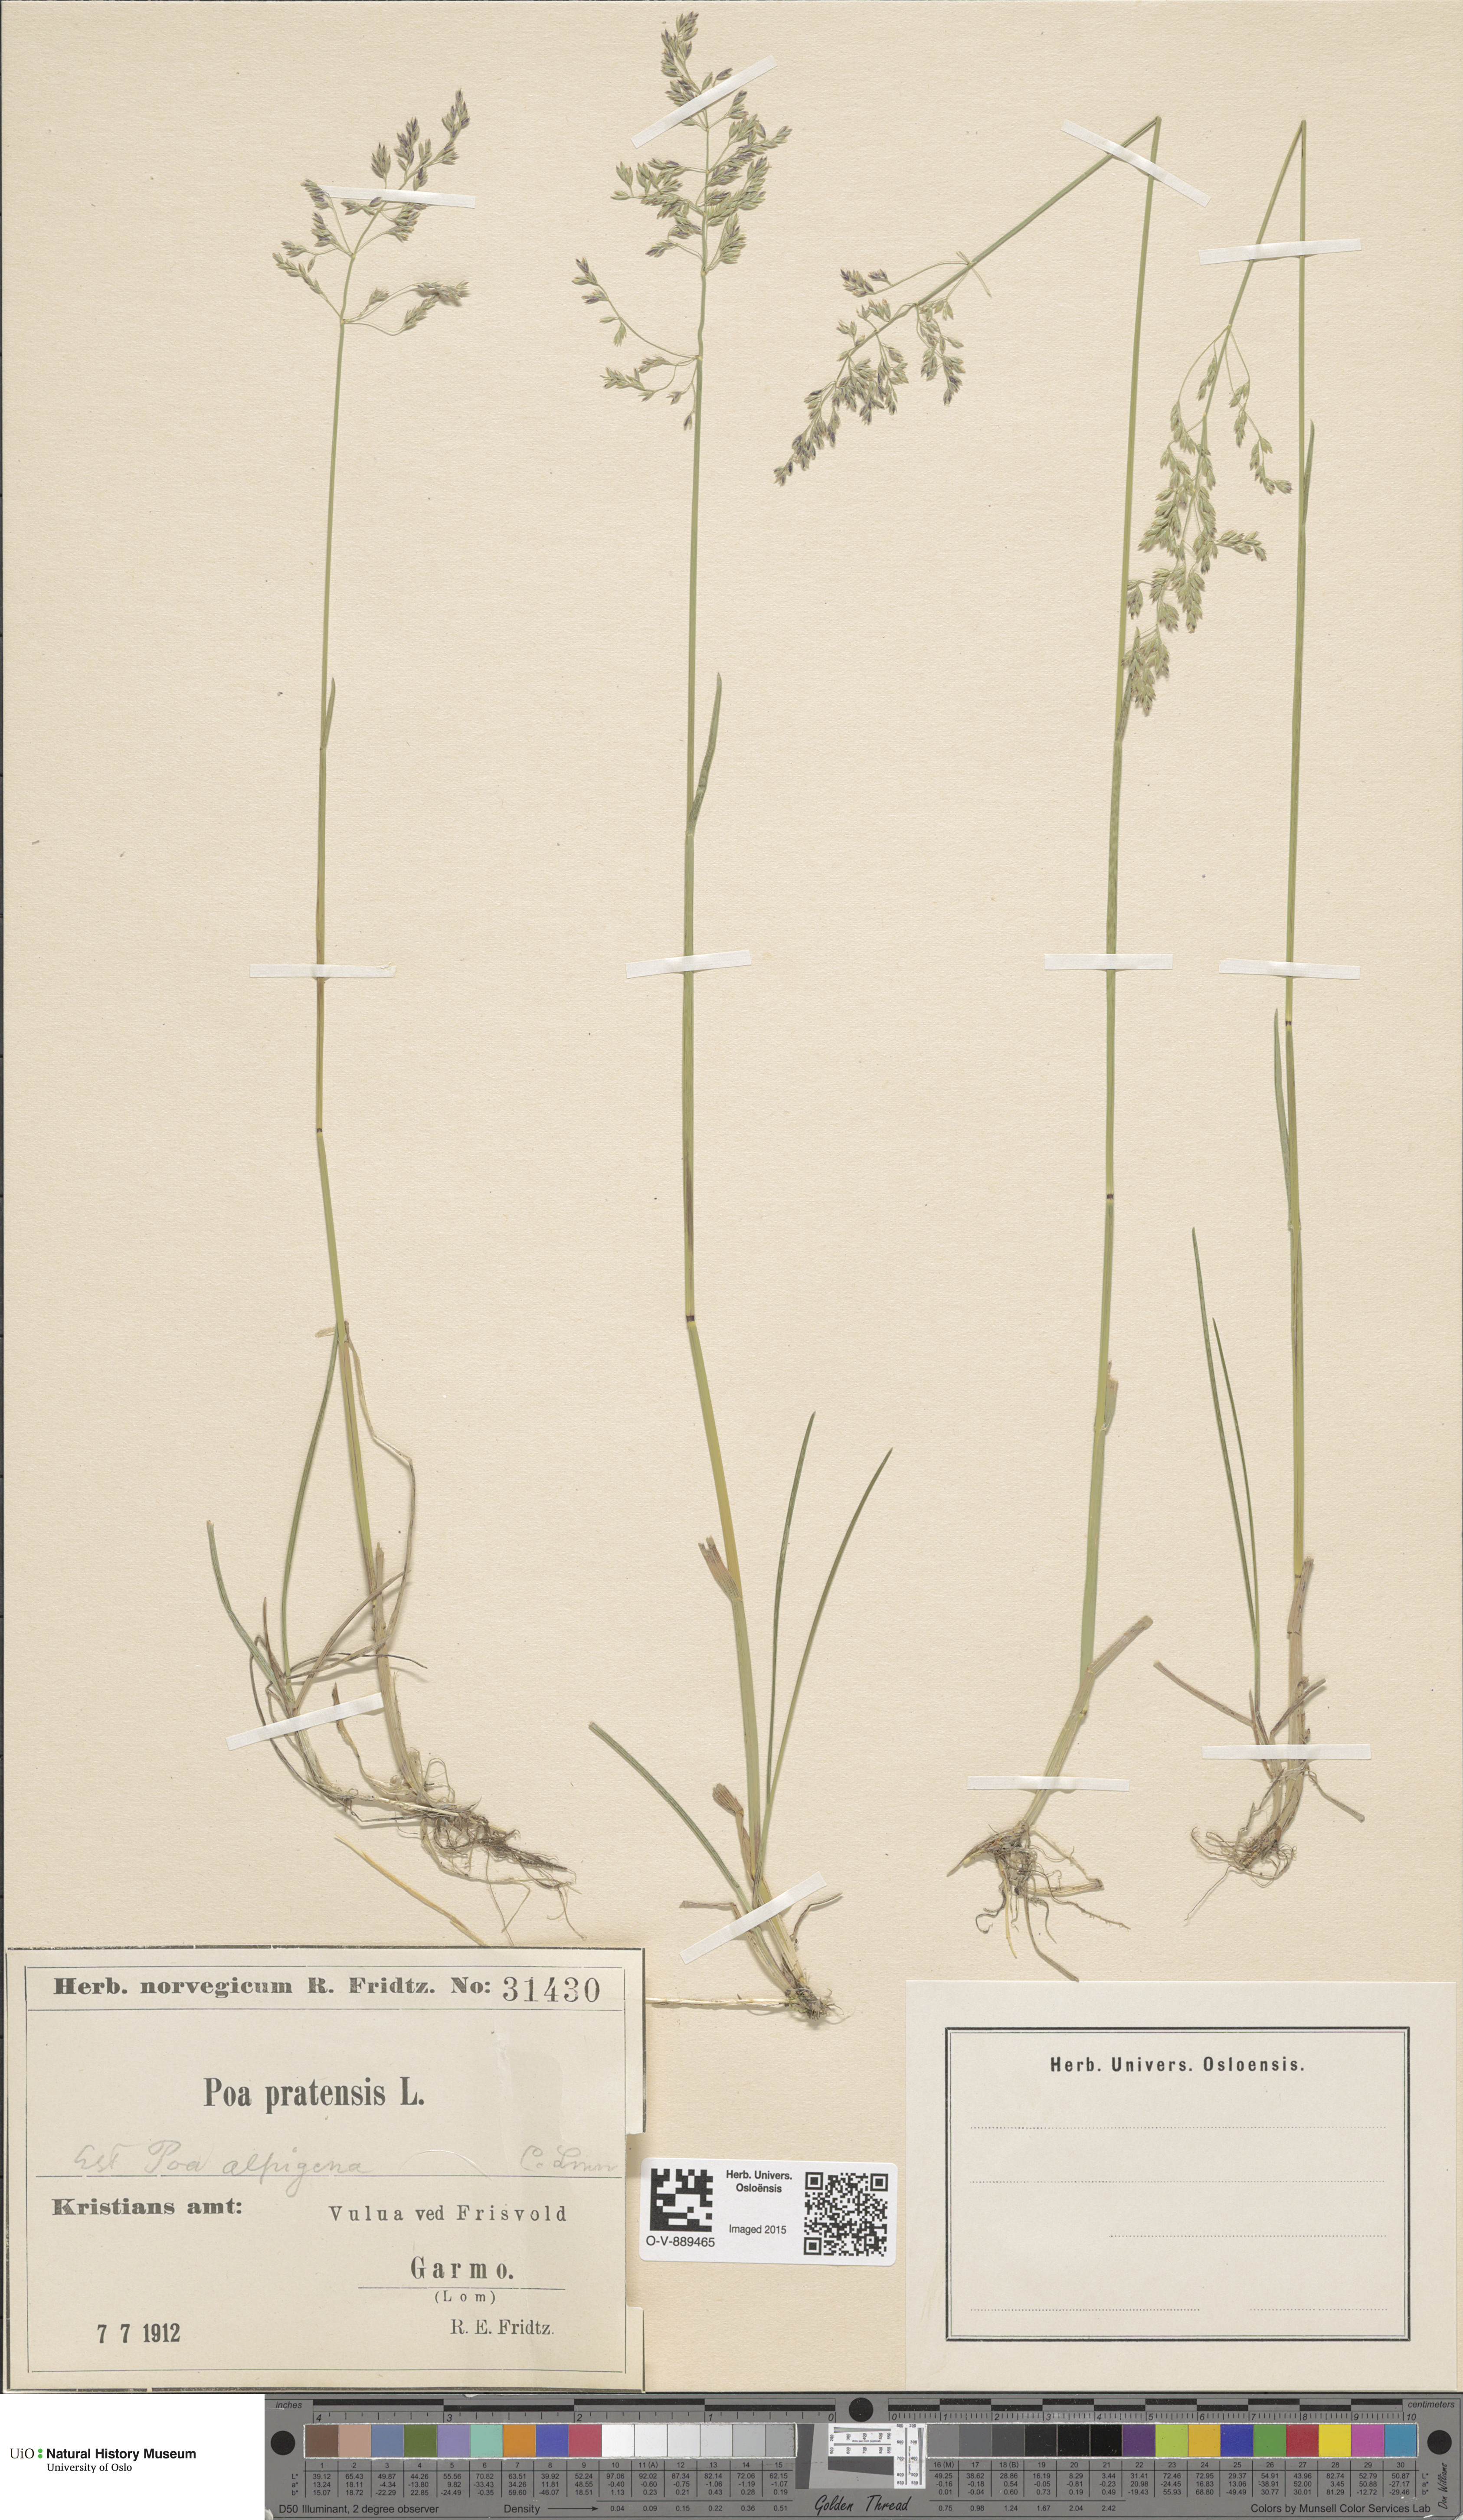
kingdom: Plantae
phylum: Tracheophyta
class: Liliopsida
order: Poales
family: Poaceae
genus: Poa
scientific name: Poa alpigena
